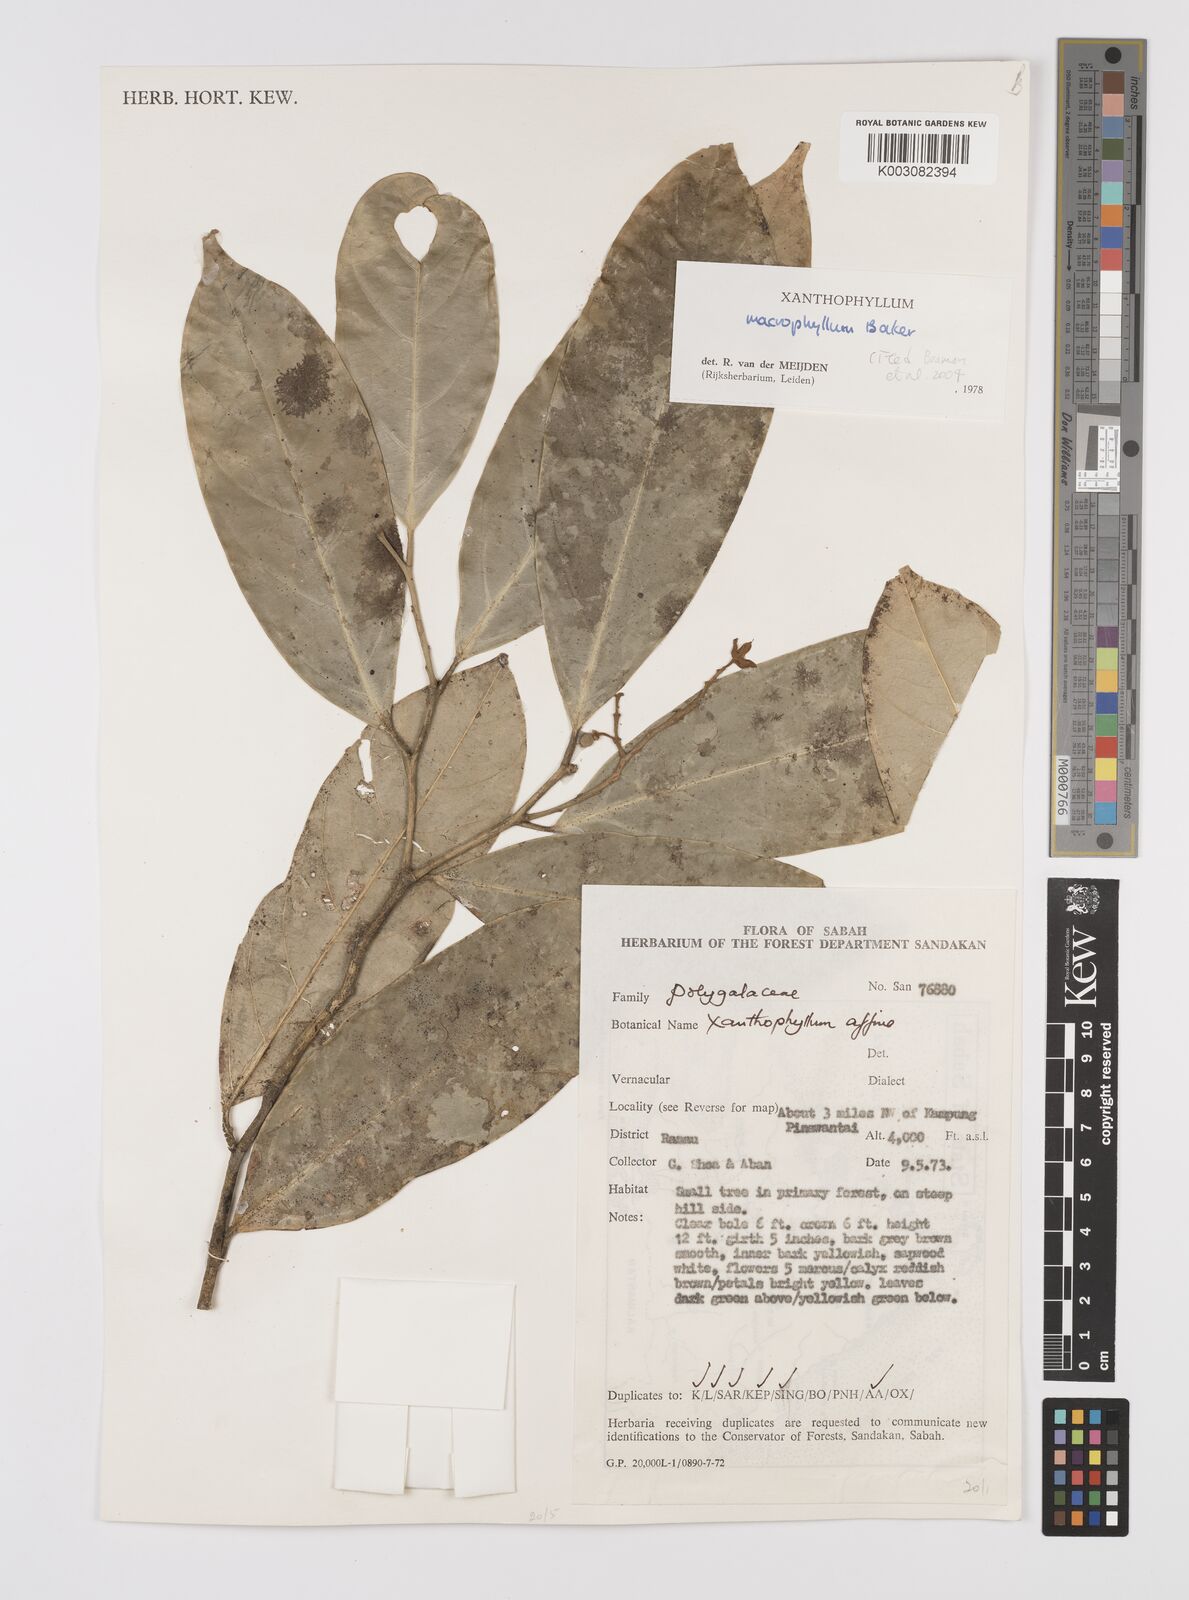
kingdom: Plantae
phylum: Tracheophyta
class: Magnoliopsida
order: Fabales
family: Polygalaceae
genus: Xanthophyllum
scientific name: Xanthophyllum macrophyllum
